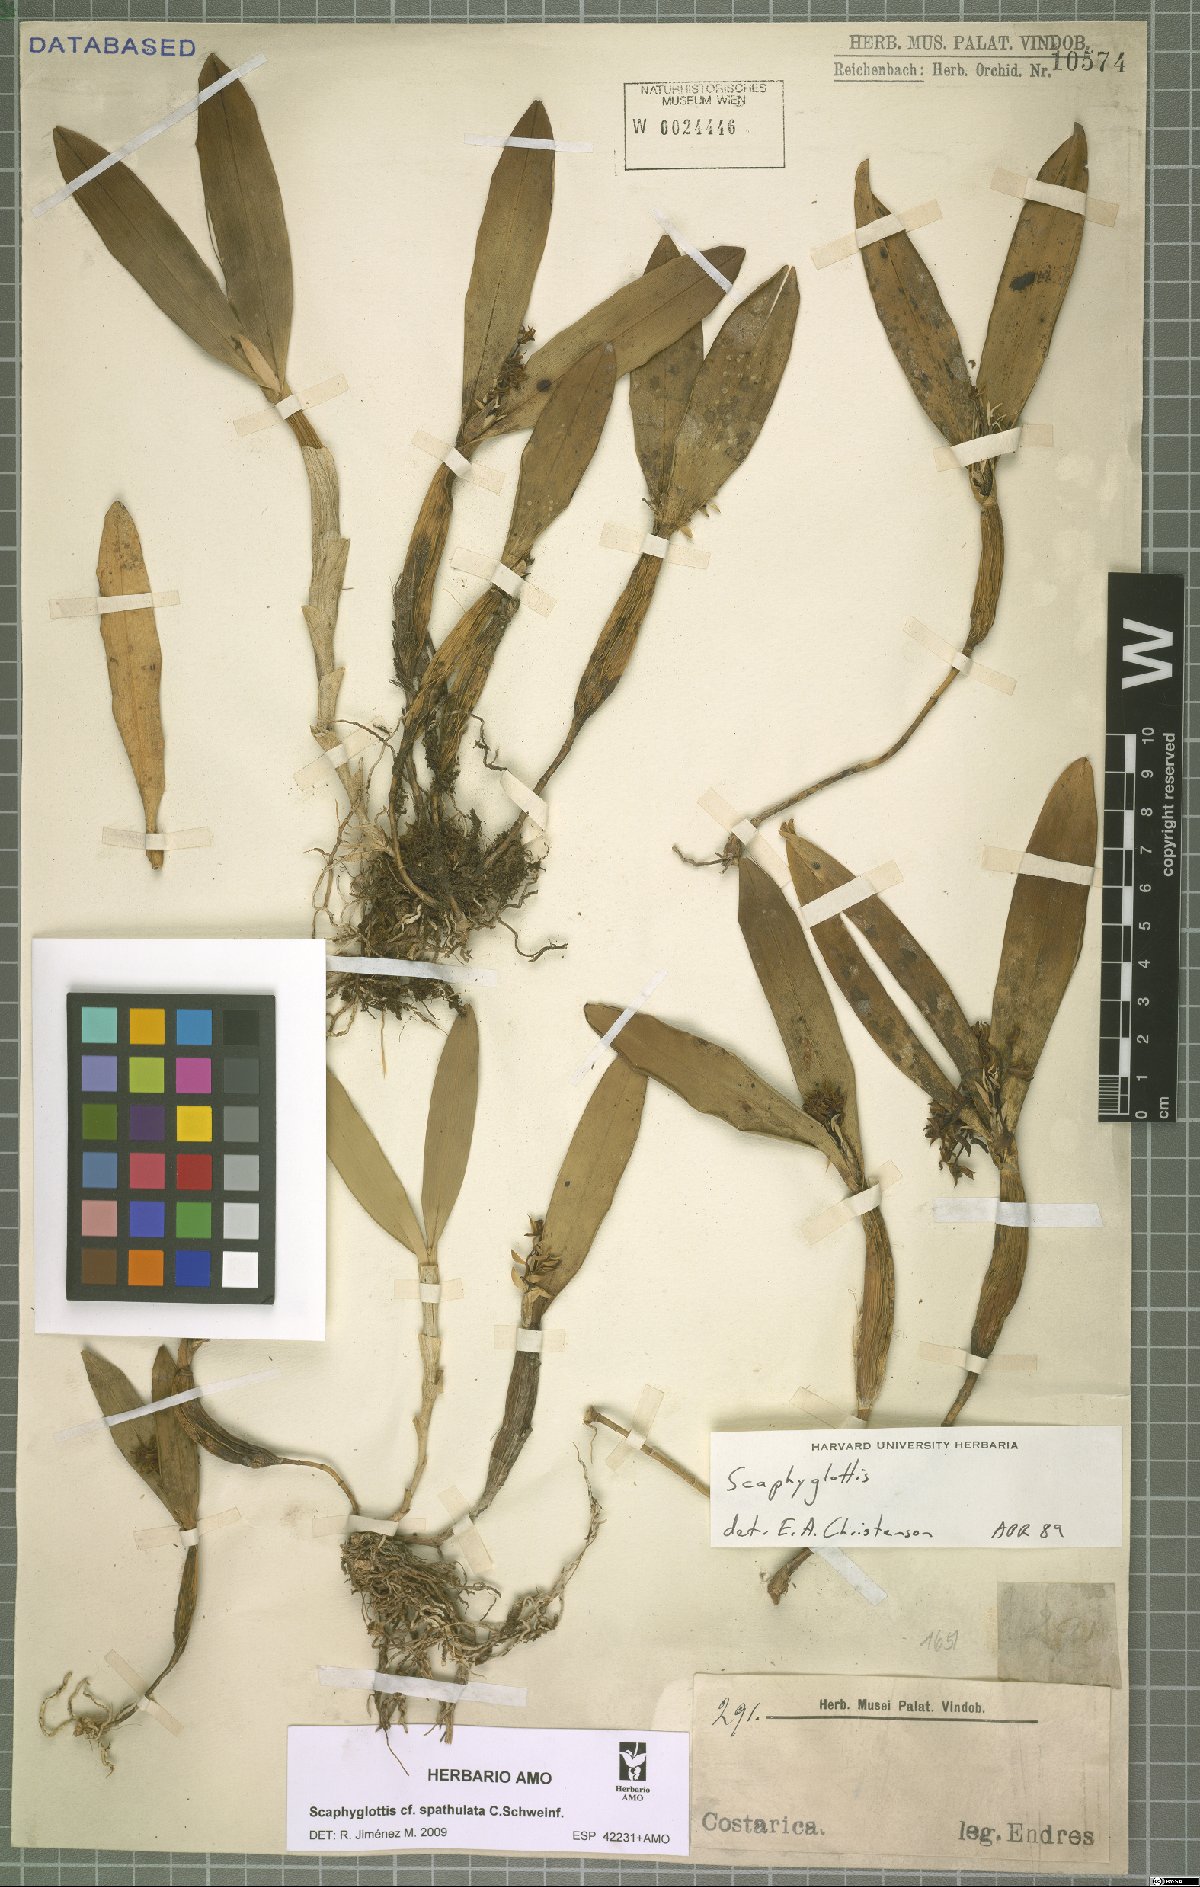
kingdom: Plantae
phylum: Tracheophyta
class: Liliopsida
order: Asparagales
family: Orchidaceae
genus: Scaphyglottis
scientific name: Scaphyglottis spathulata
